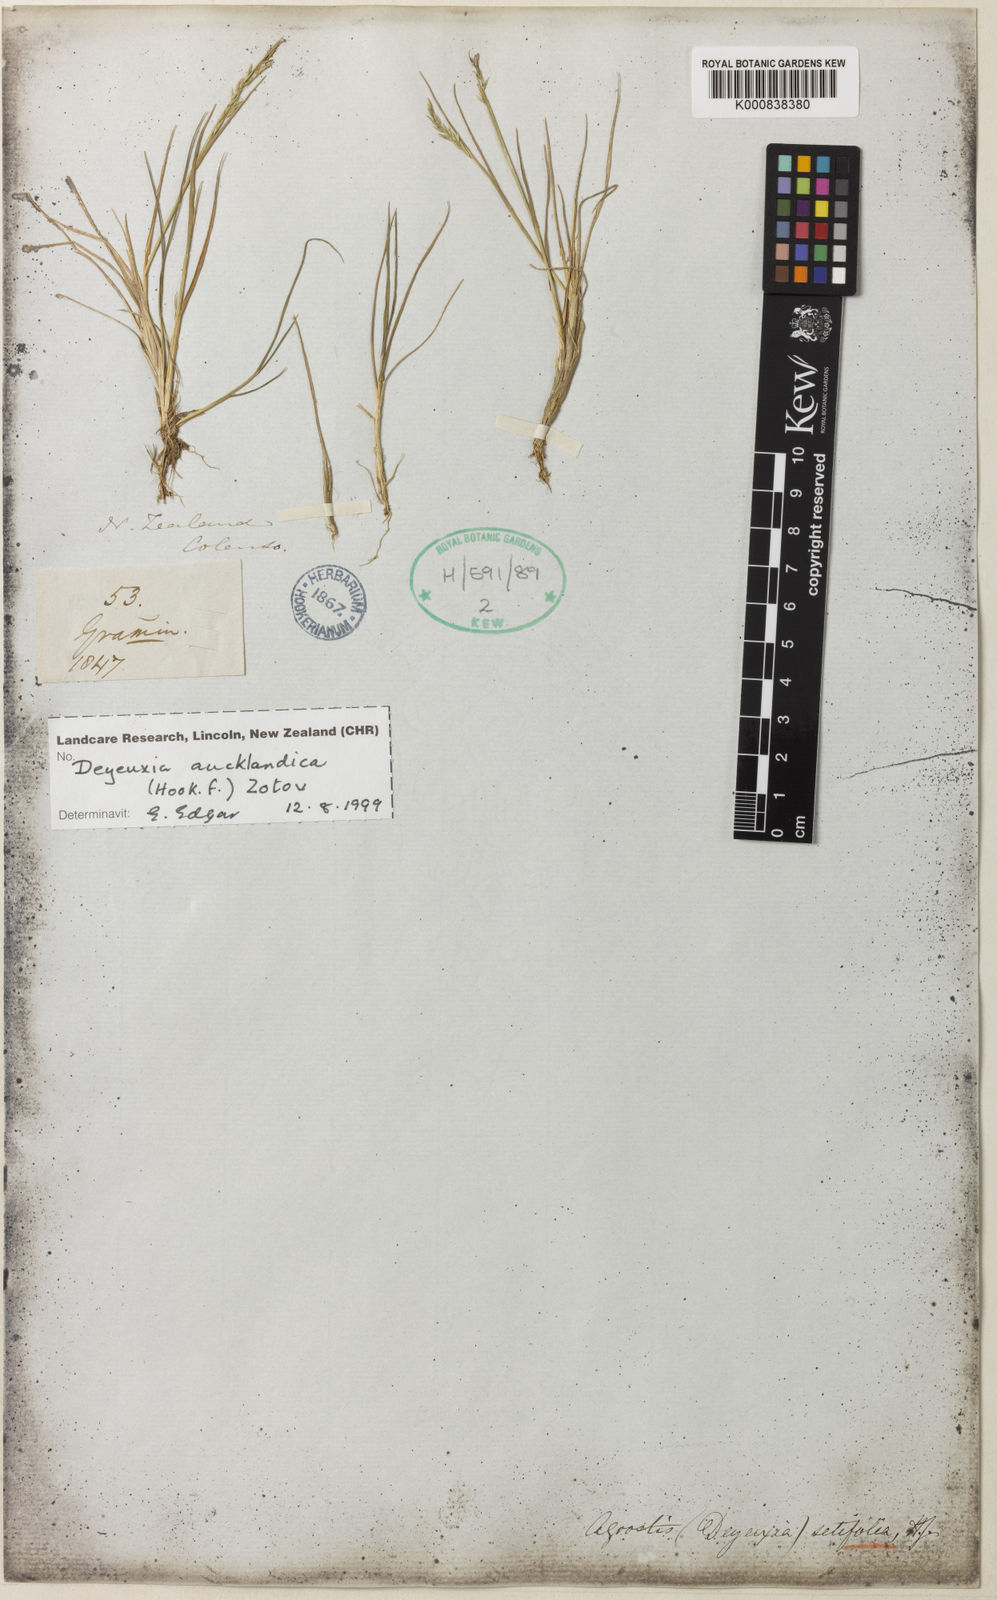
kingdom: Plantae
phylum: Tracheophyta
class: Liliopsida
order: Poales
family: Poaceae
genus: Agrostis
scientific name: Agrostis aucklandica
